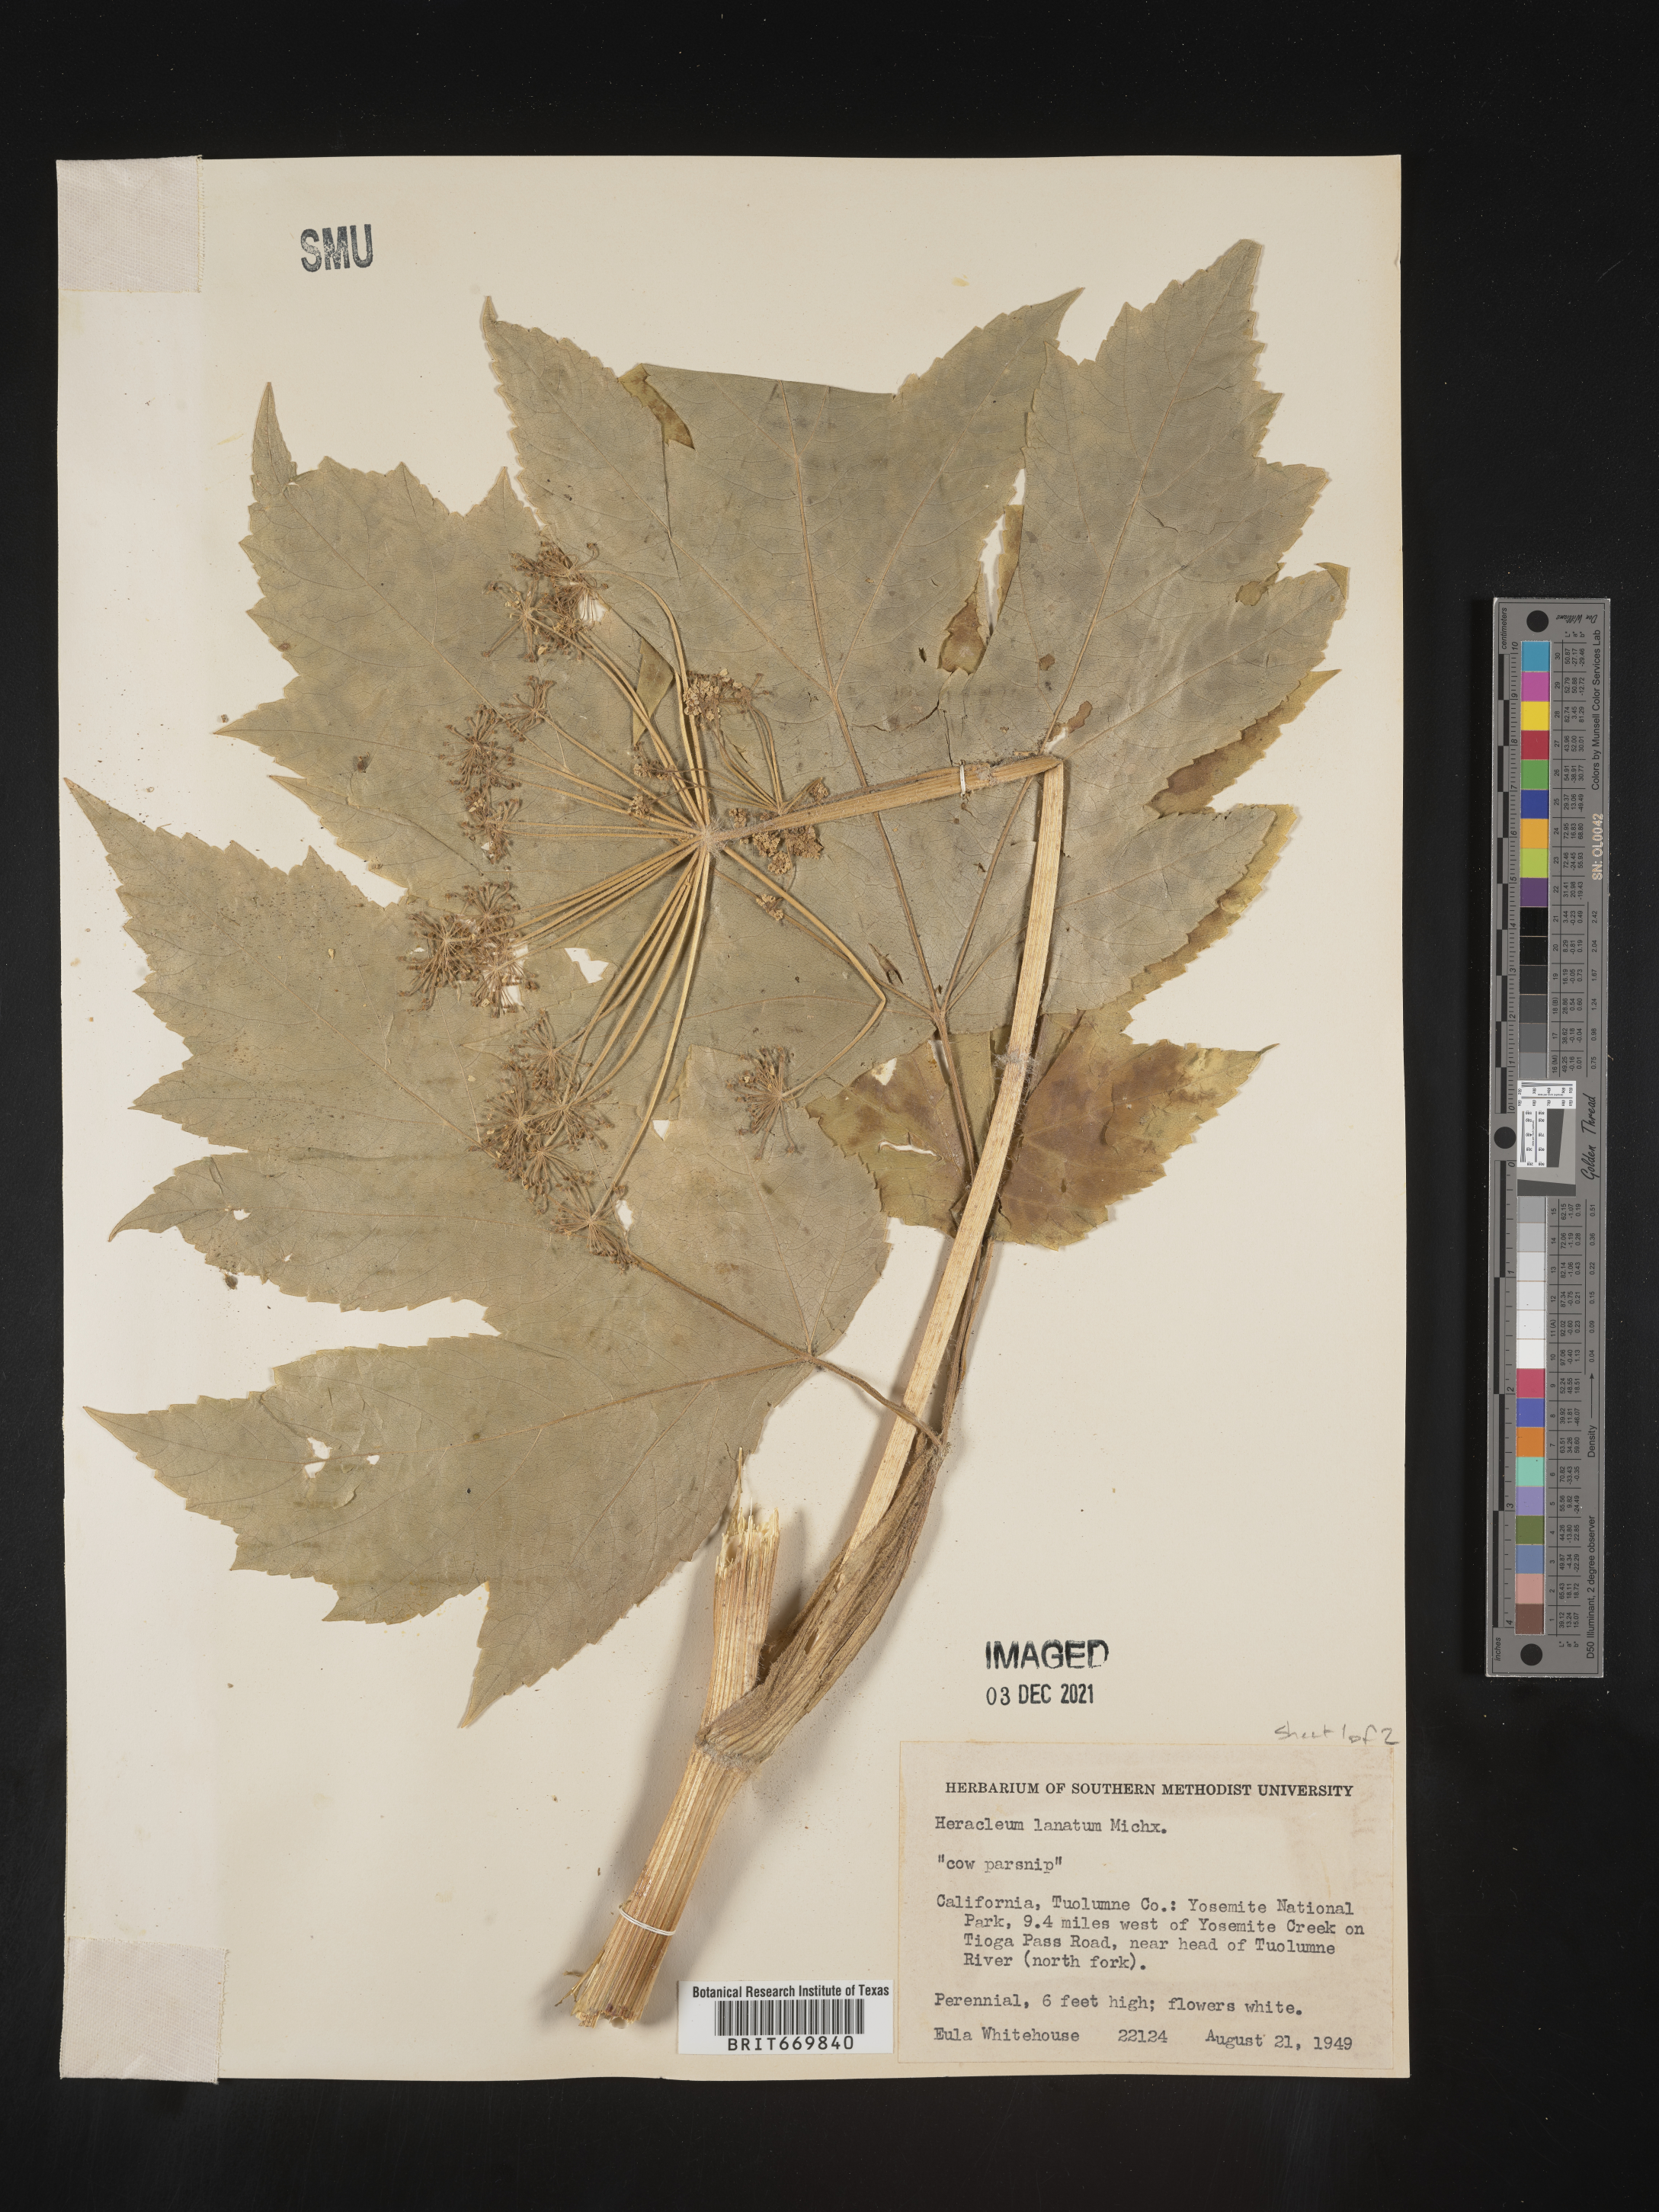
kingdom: Plantae
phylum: Tracheophyta
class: Magnoliopsida
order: Apiales
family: Apiaceae
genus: Heracleum
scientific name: Heracleum maximum
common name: American cow parsnip
